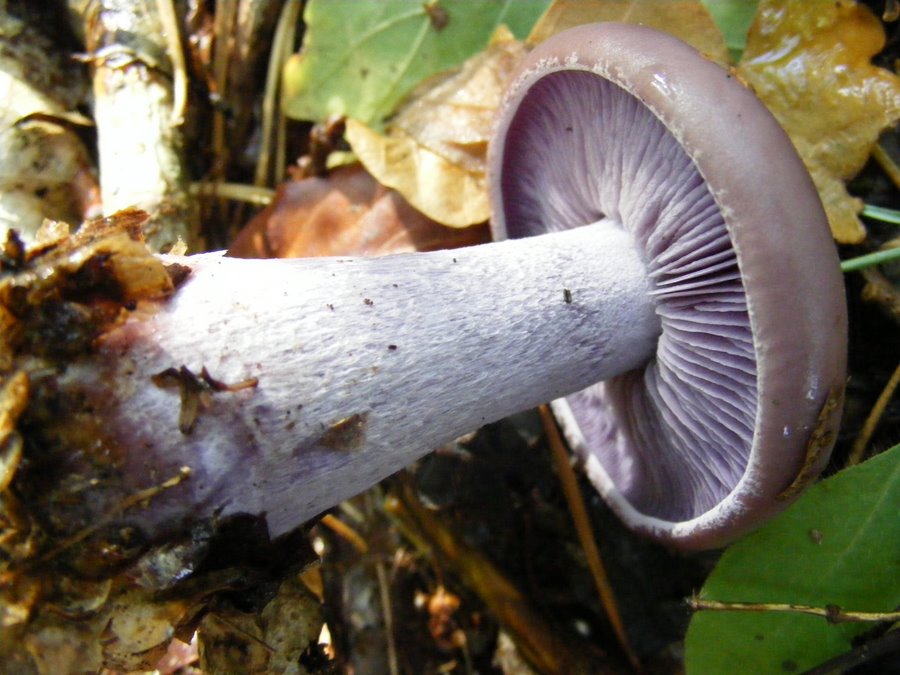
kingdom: Fungi
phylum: Basidiomycota
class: Agaricomycetes
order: Agaricales
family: Tricholomataceae
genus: Lepista
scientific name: Lepista nuda
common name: violet hekseringshat
